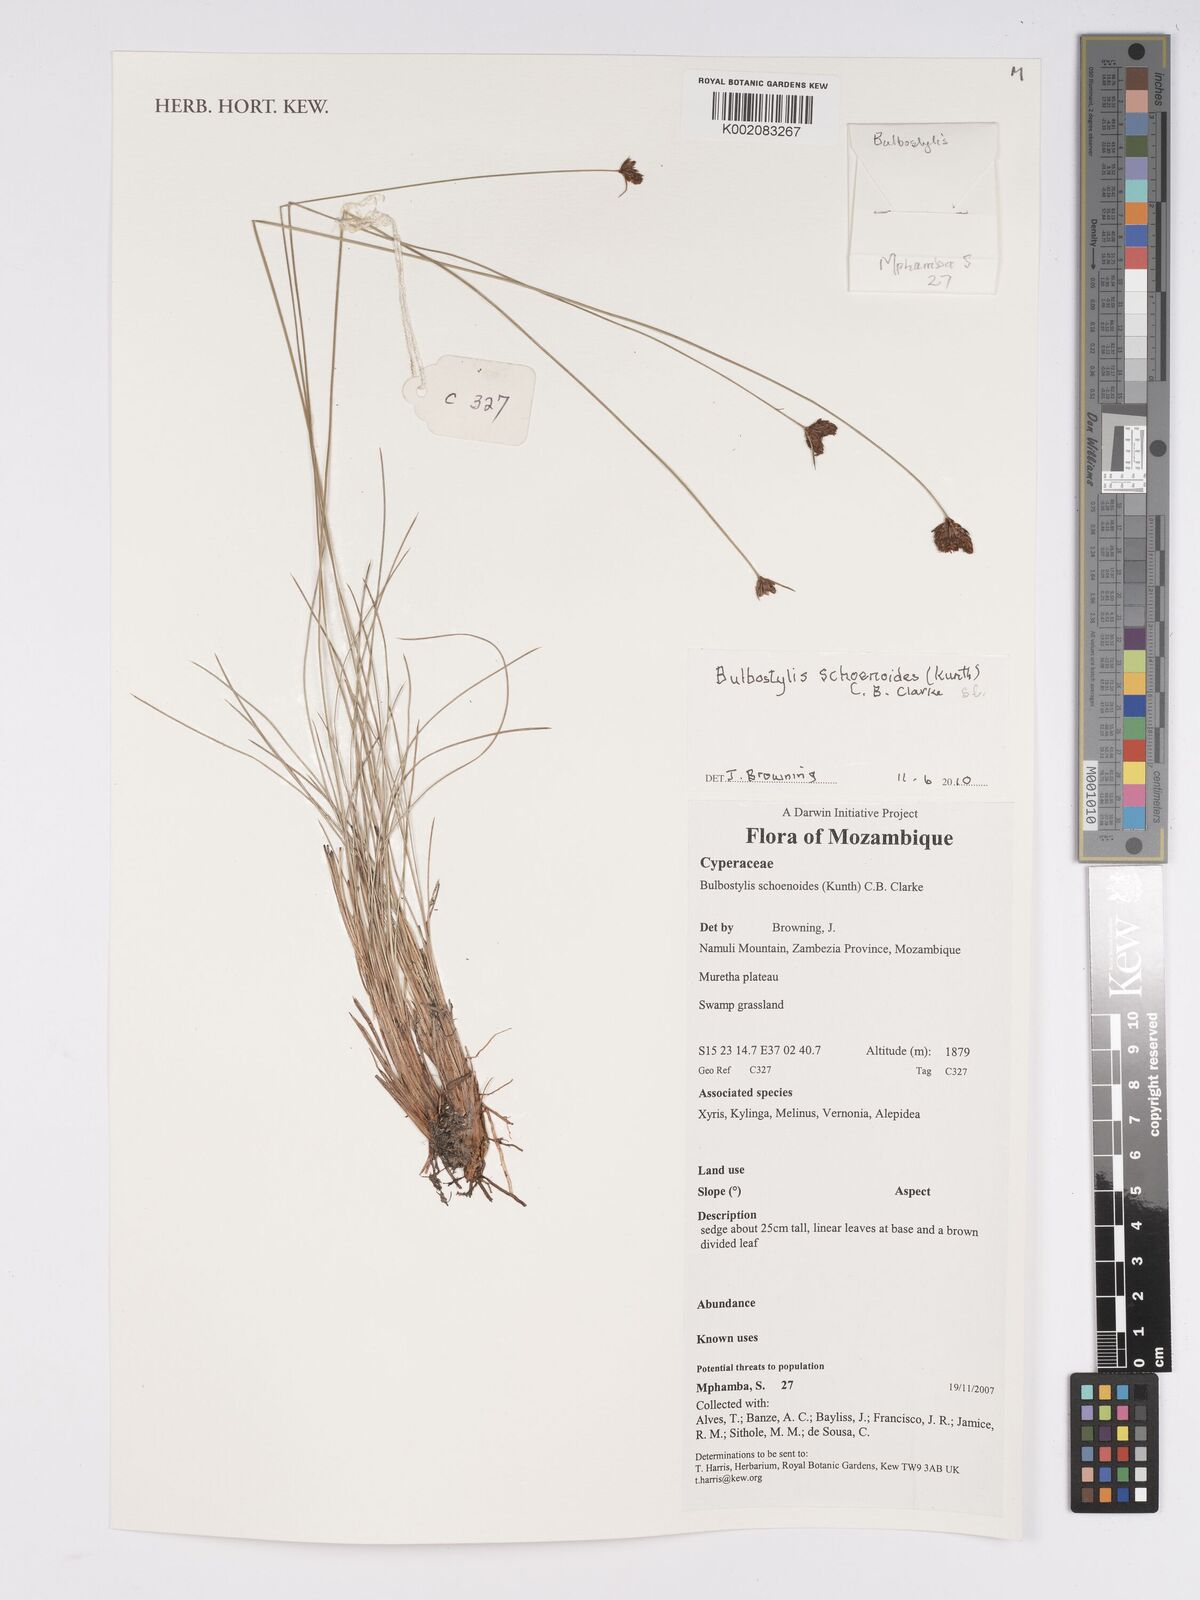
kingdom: Plantae
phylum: Tracheophyta
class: Liliopsida
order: Poales
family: Cyperaceae
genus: Bulbostylis
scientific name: Bulbostylis schoenoides
